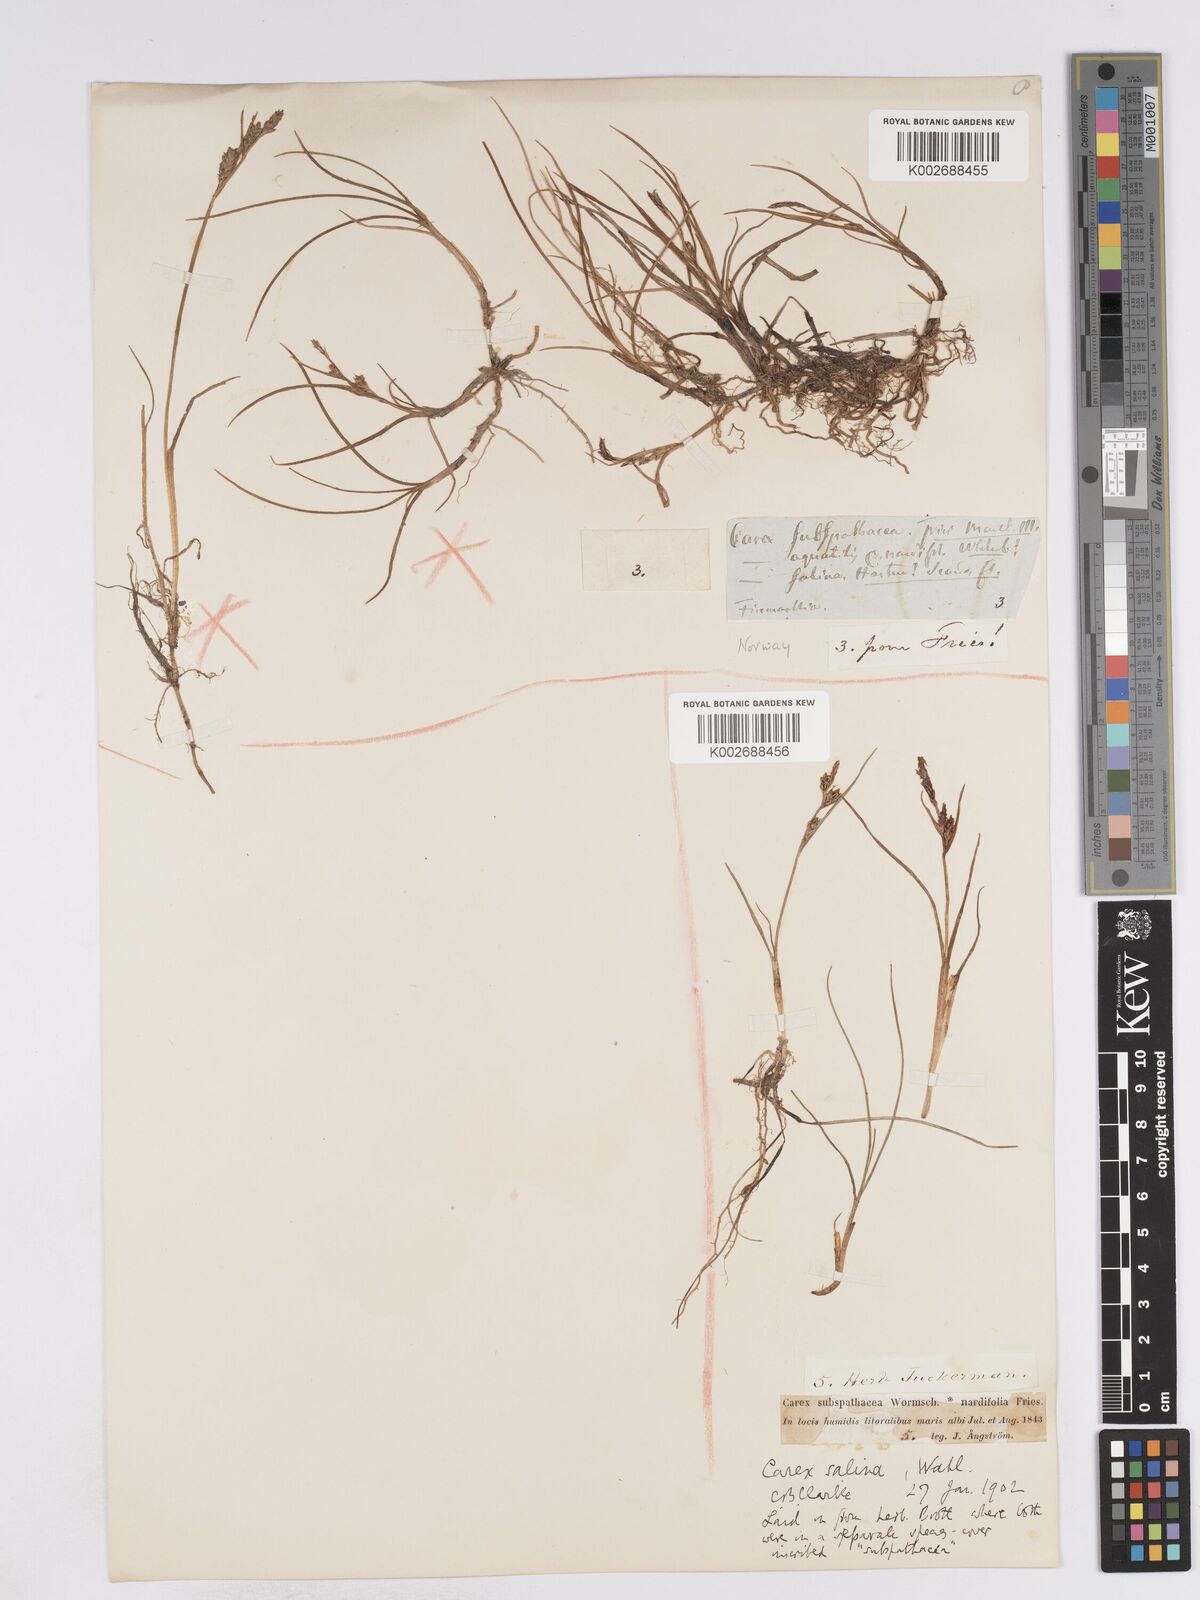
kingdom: Plantae
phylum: Tracheophyta
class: Liliopsida
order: Poales
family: Cyperaceae
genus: Carex
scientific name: Carex subspathacea
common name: Hoppner's sedge
